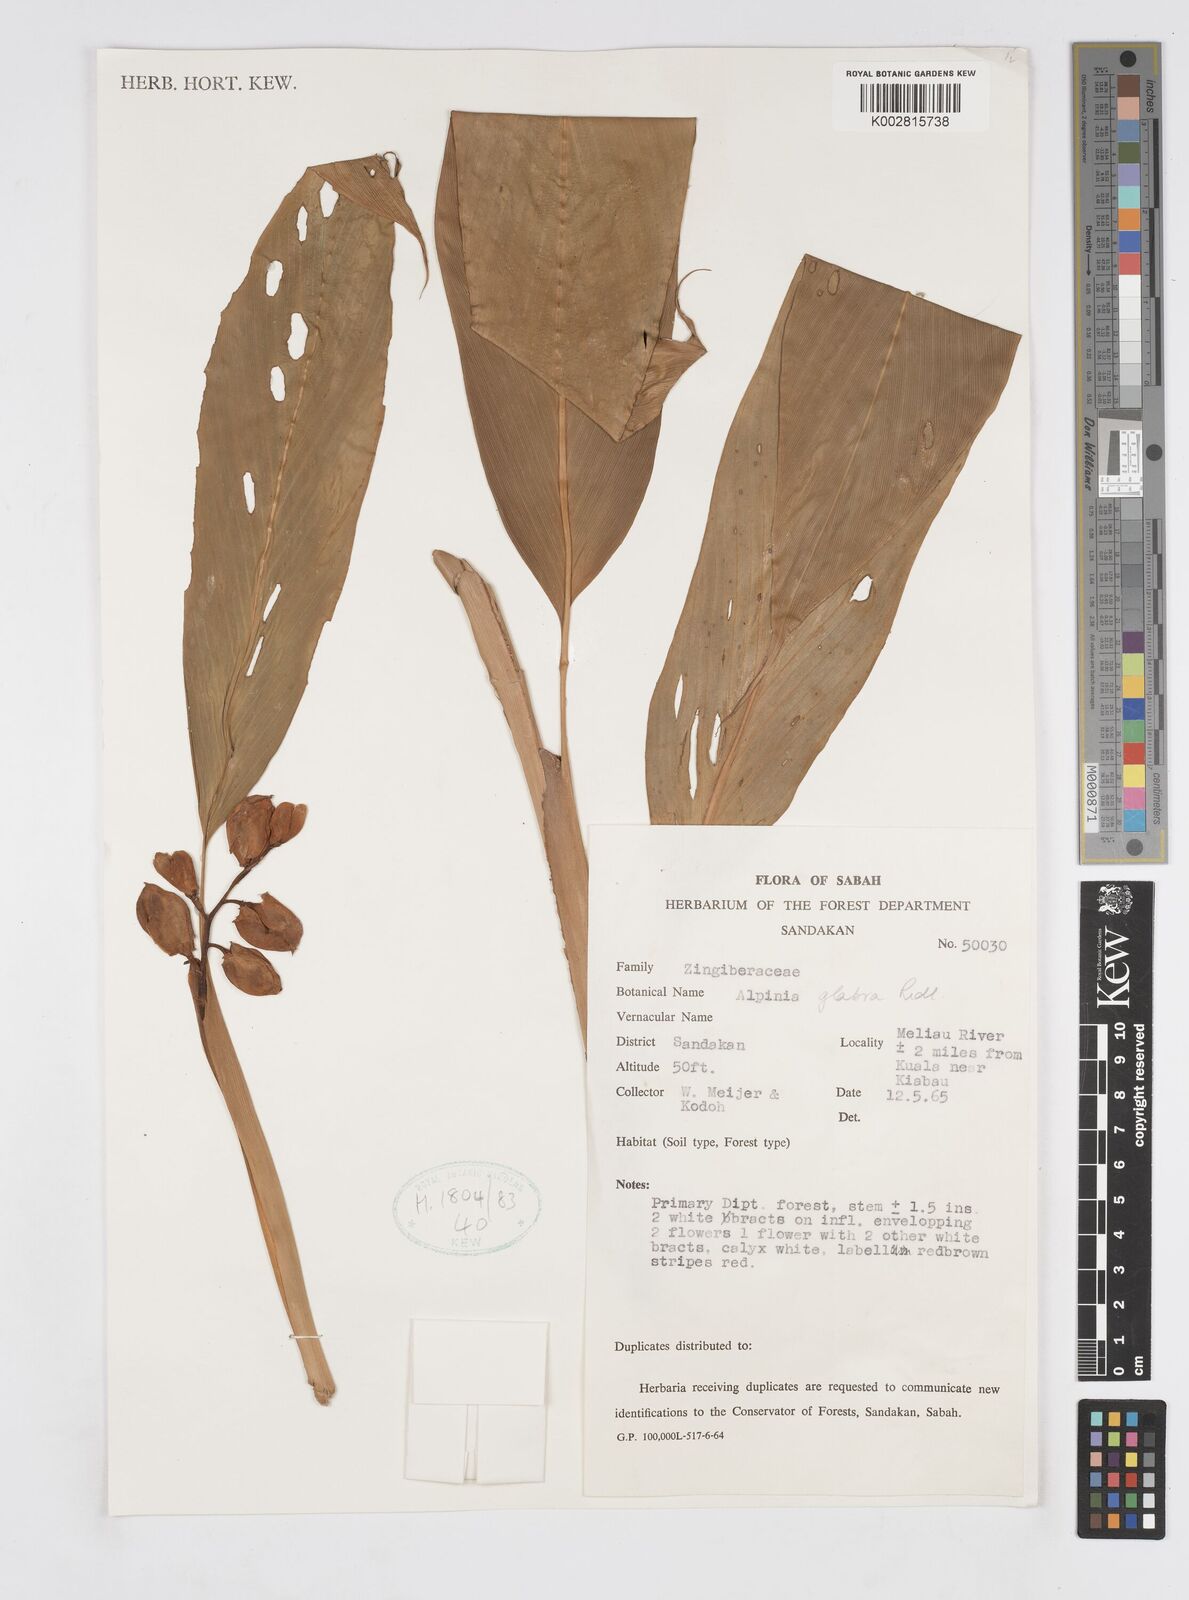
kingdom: Plantae
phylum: Tracheophyta
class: Liliopsida
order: Zingiberales
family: Zingiberaceae
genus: Alpinia
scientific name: Alpinia glabra
